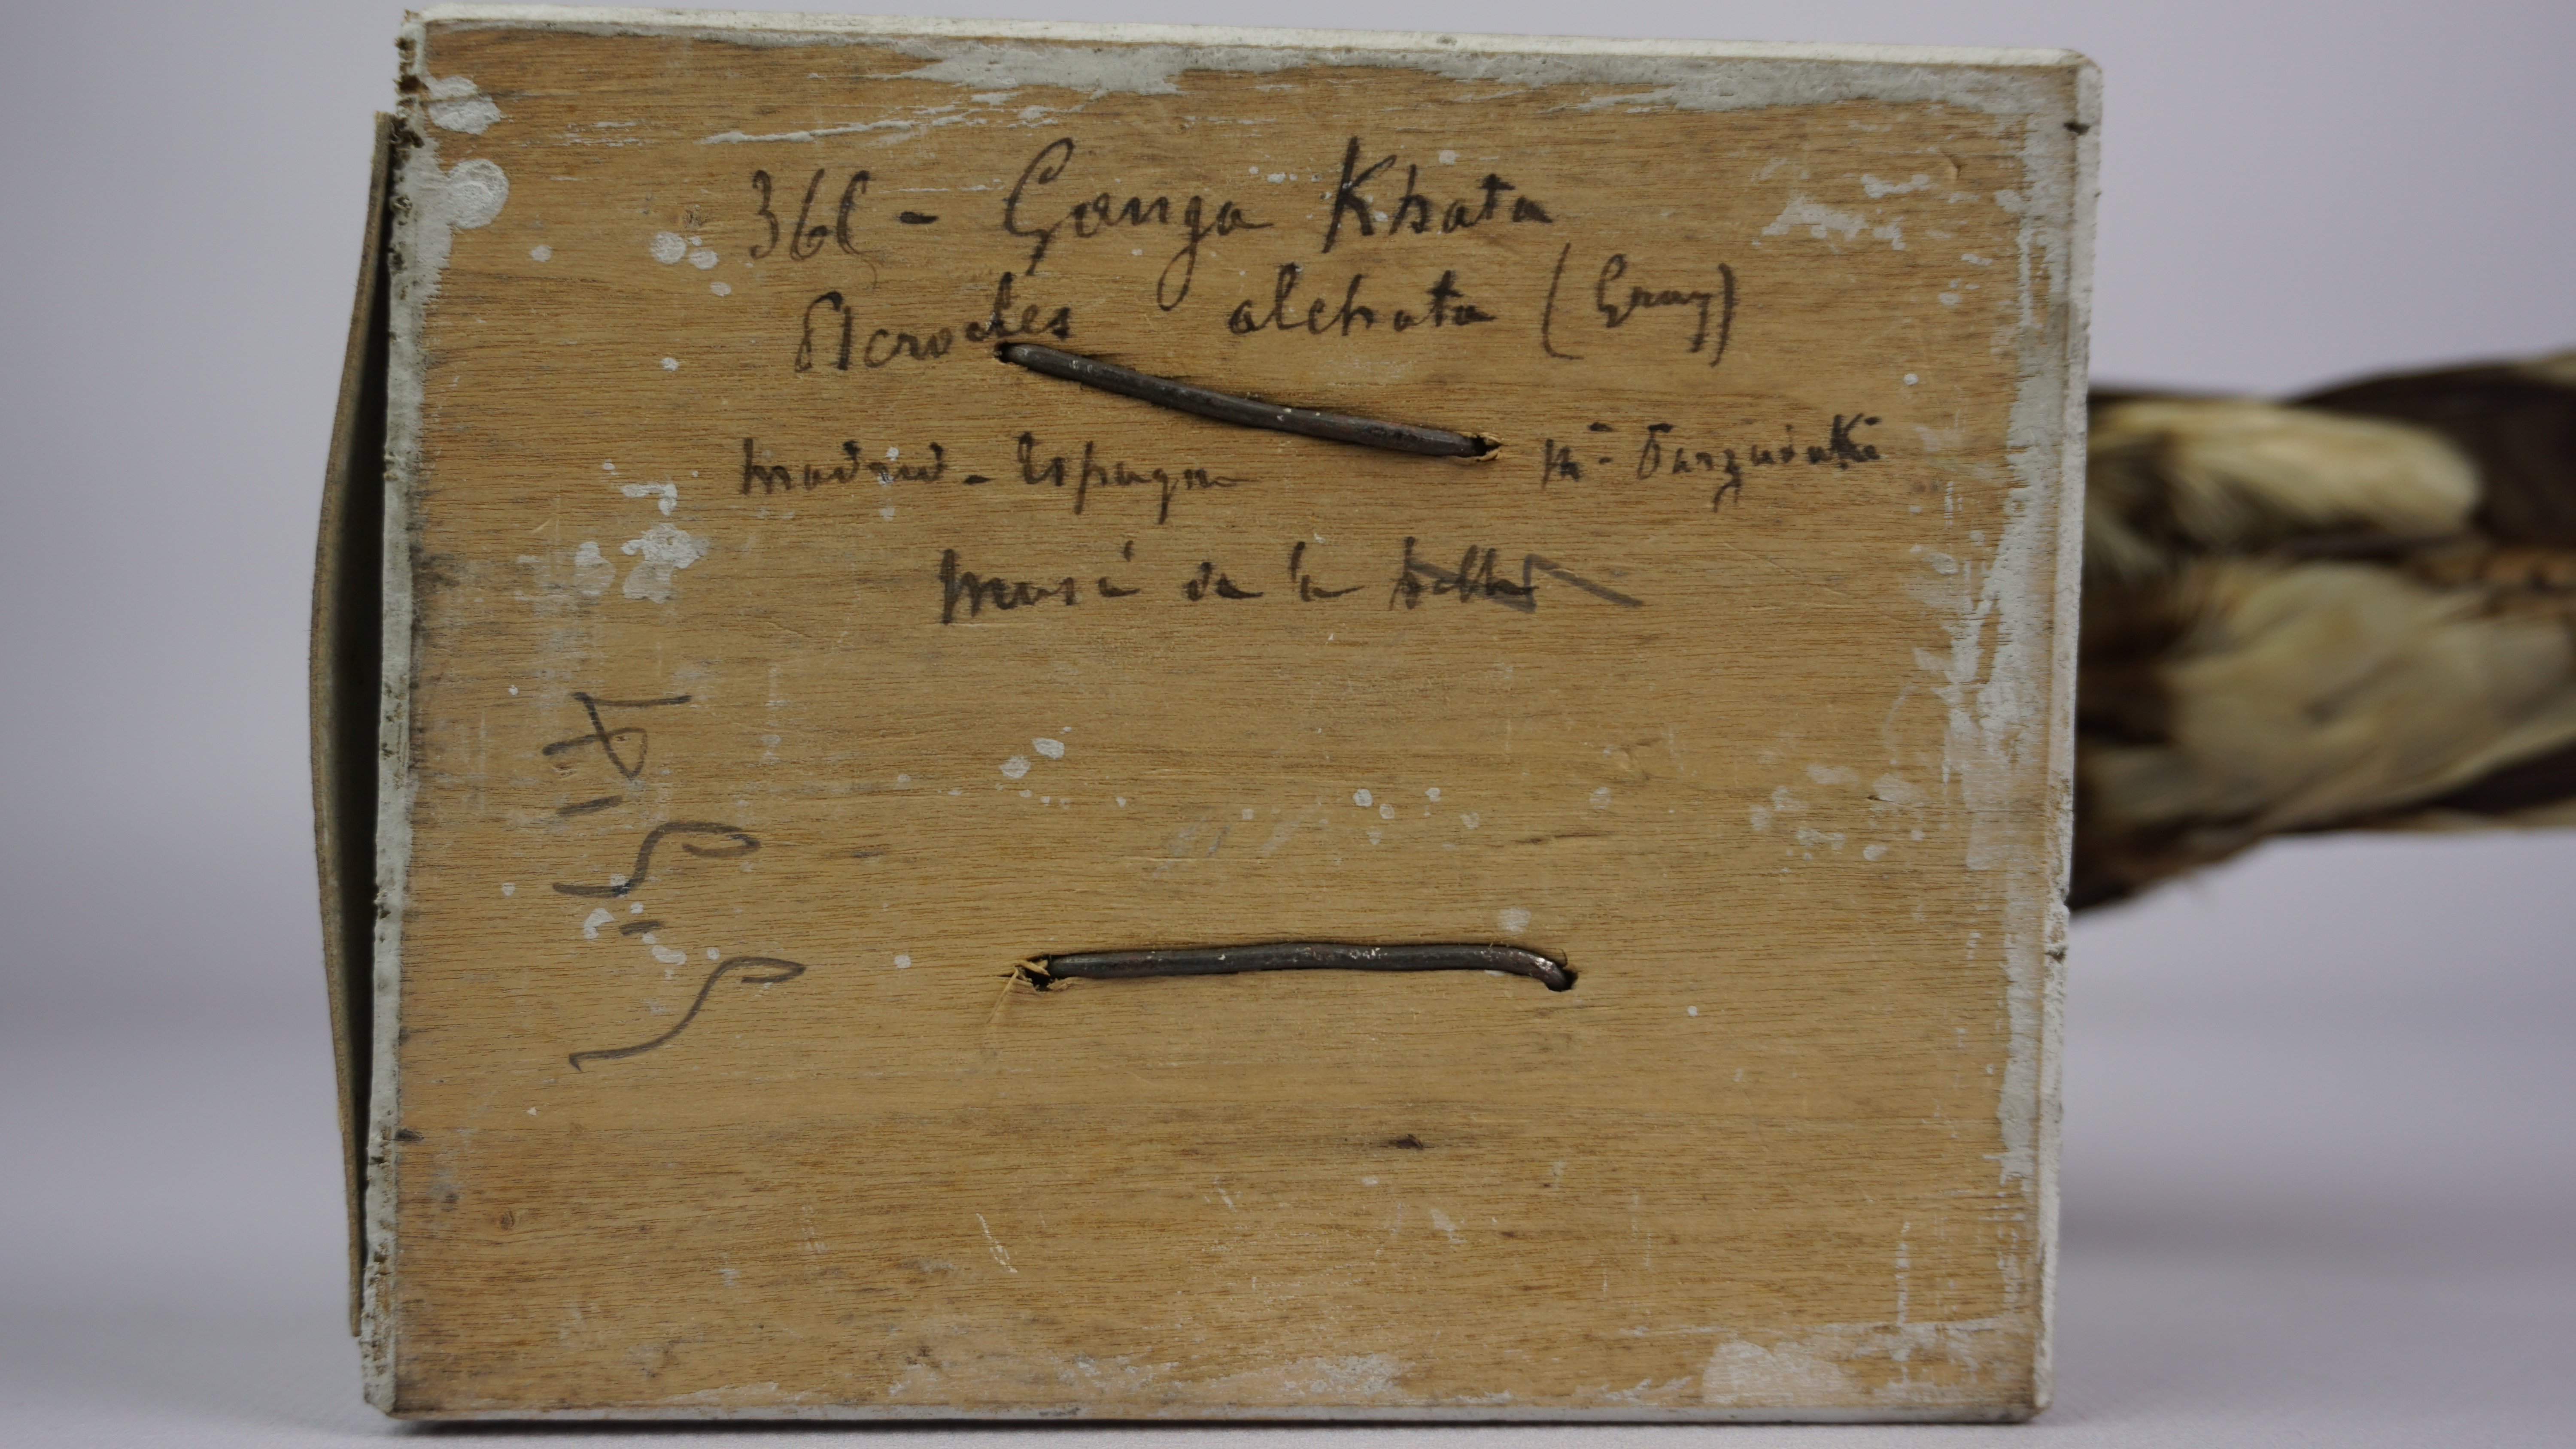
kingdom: Animalia
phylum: Chordata
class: Aves
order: Pteroclidiformes
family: Pteroclididae
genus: Pterocles
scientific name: Pterocles orientalis
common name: Black-bellied sandgrouse
